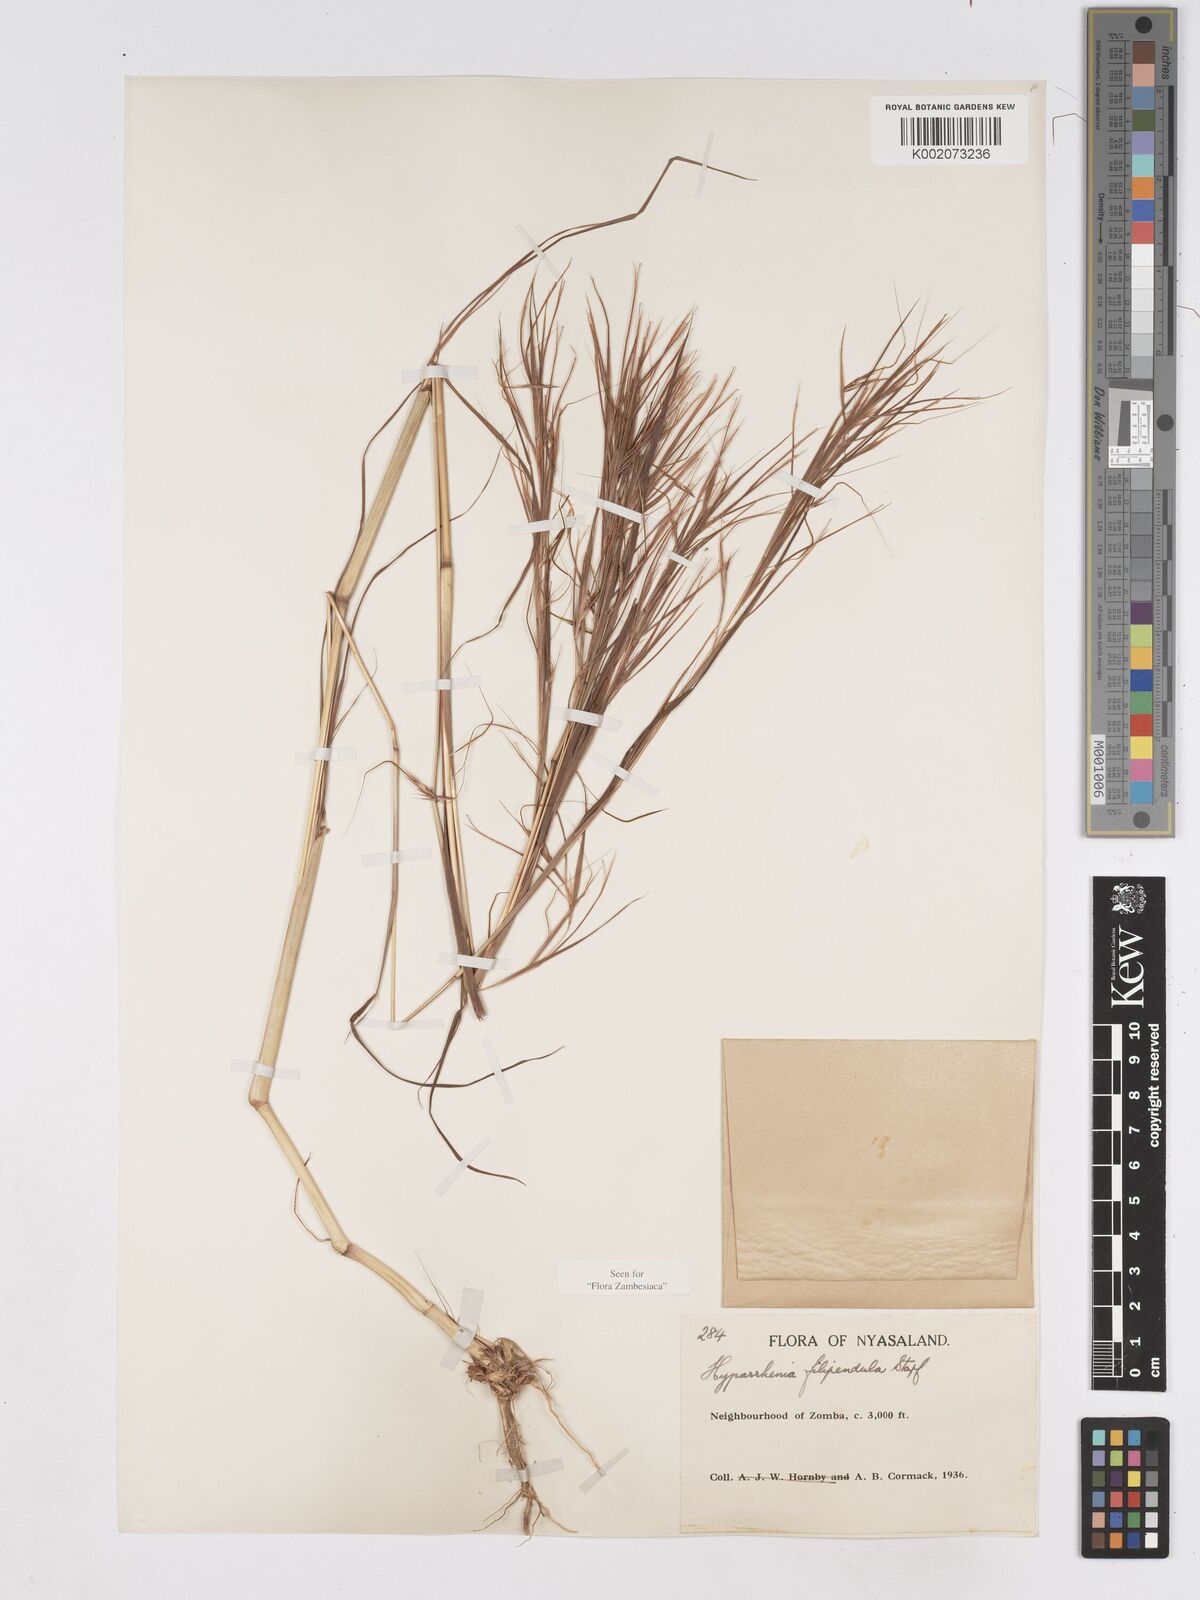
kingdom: Plantae
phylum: Tracheophyta
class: Liliopsida
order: Poales
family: Poaceae
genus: Hyparrhenia
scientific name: Hyparrhenia filipendula
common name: Tambookie grass
